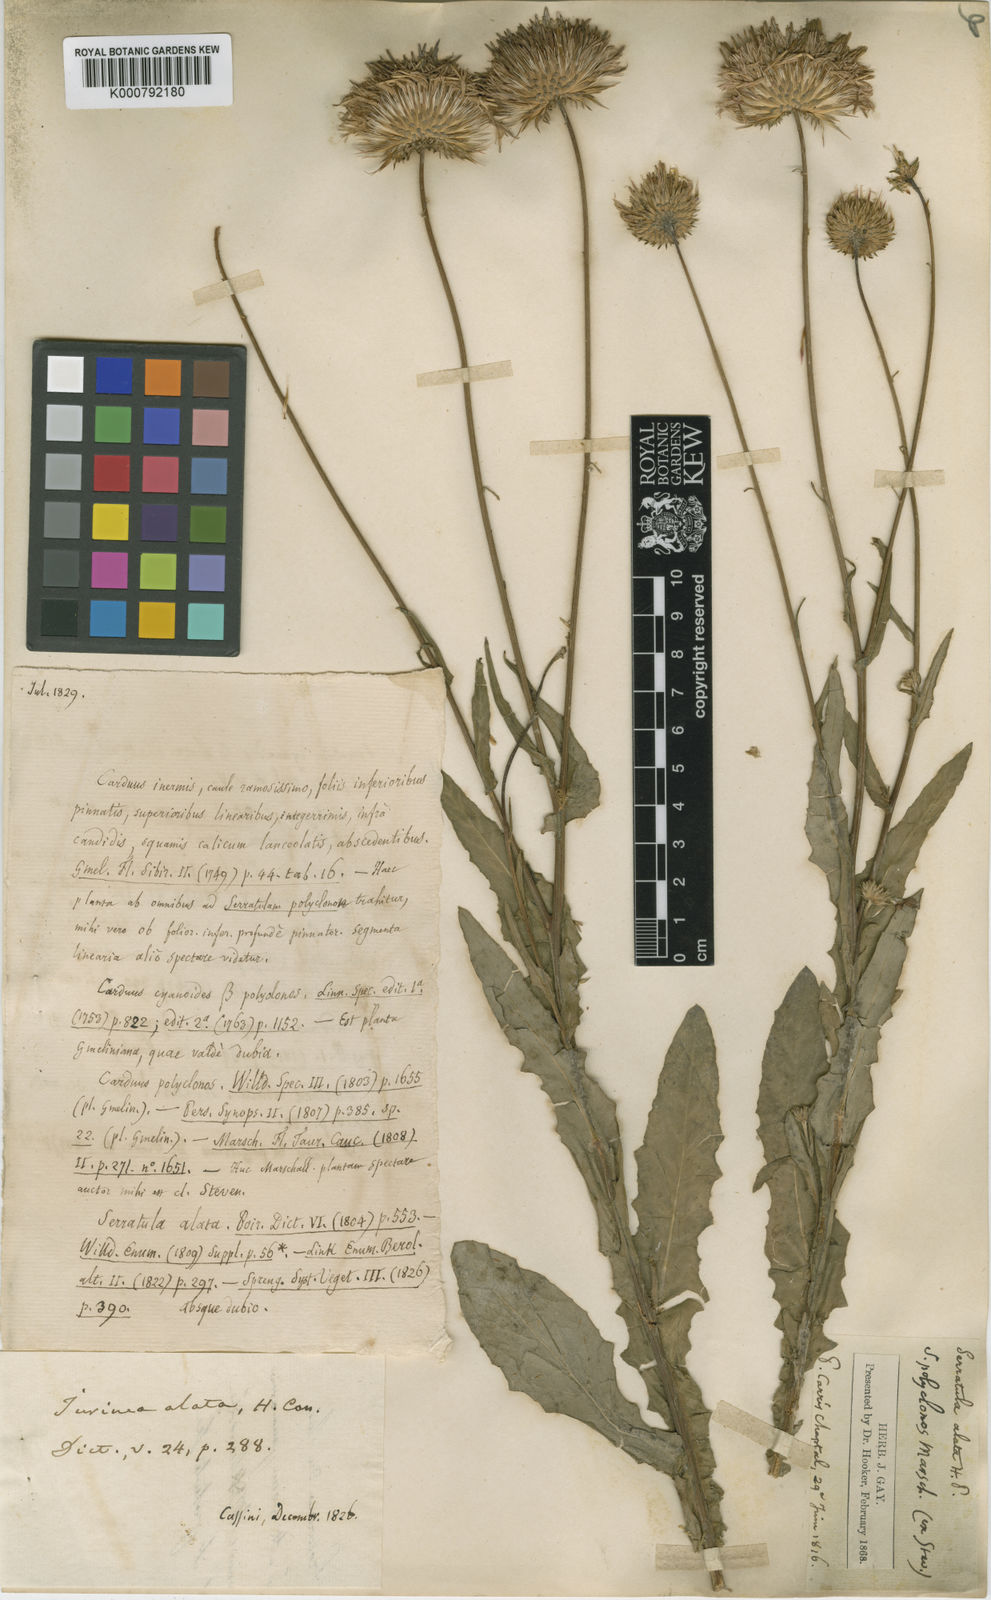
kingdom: Plantae
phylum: Tracheophyta
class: Magnoliopsida
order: Asterales
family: Asteraceae
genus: Jurinea
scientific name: Jurinea alata
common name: Winged jurinea
